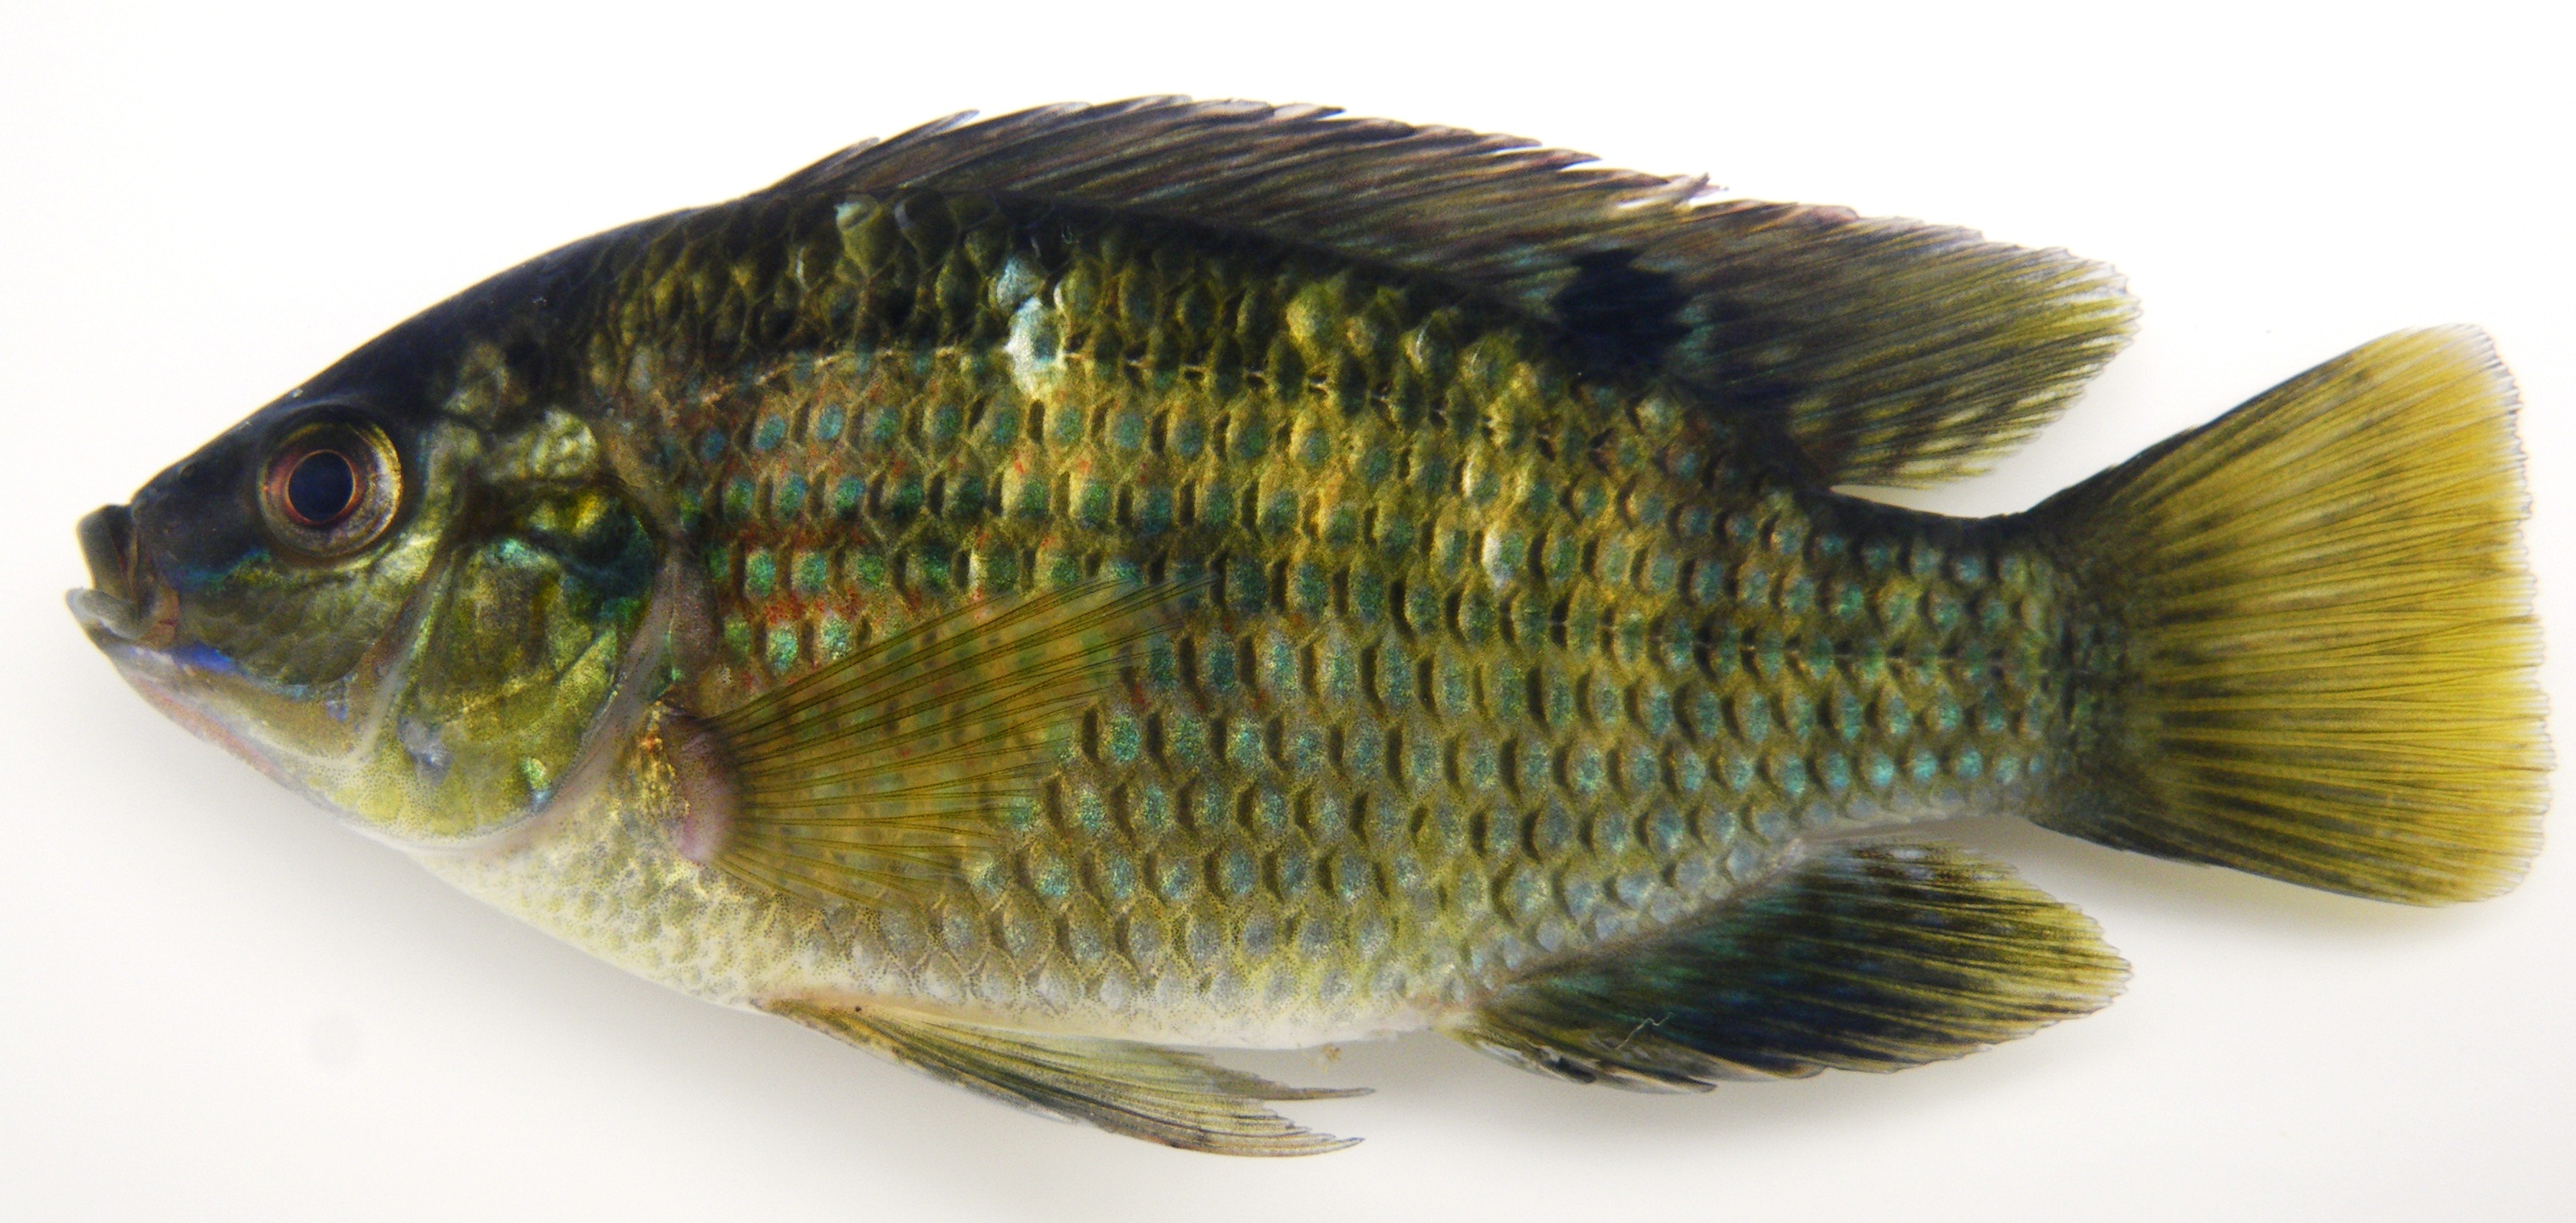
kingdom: Animalia
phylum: Chordata
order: Perciformes
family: Cichlidae
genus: Tilapia
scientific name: Tilapia sparrmanii
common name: Banded tilapia
